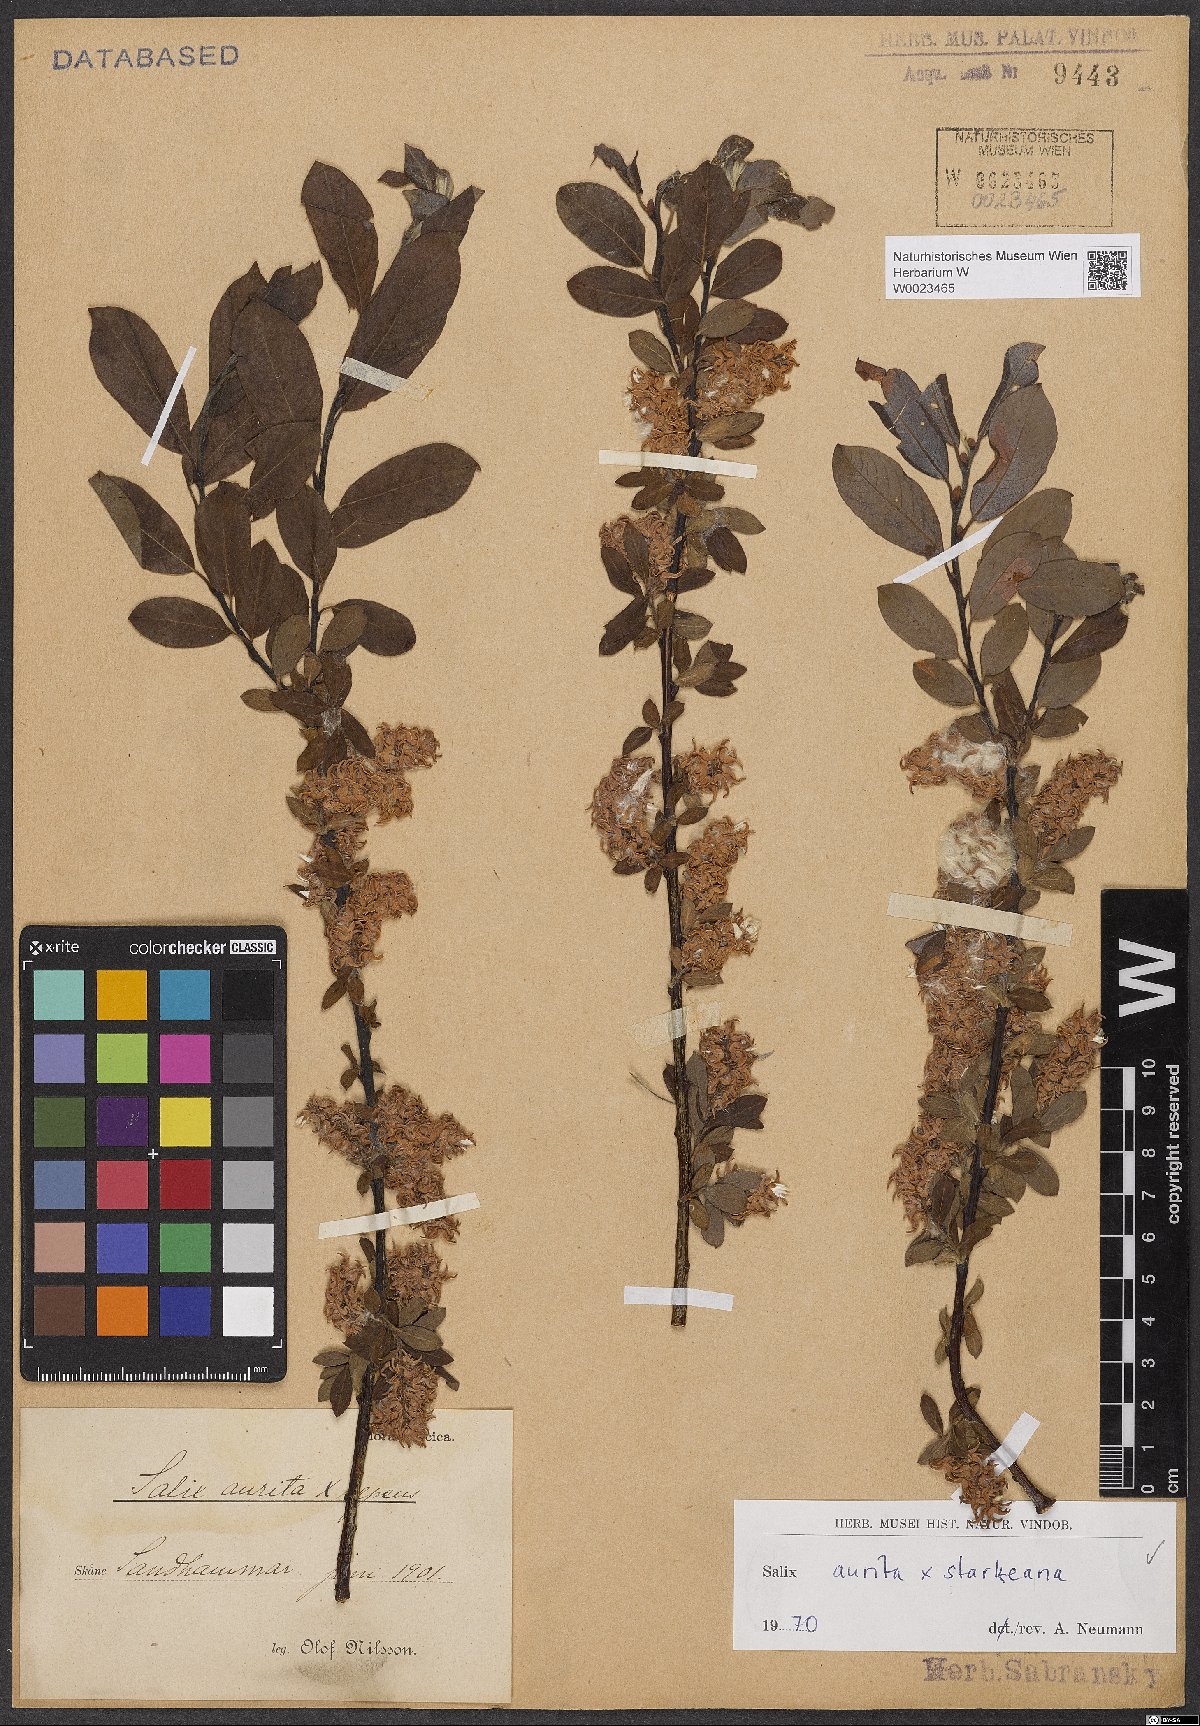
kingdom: Plantae
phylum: Tracheophyta
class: Magnoliopsida
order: Malpighiales
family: Salicaceae
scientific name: Salicaceae
